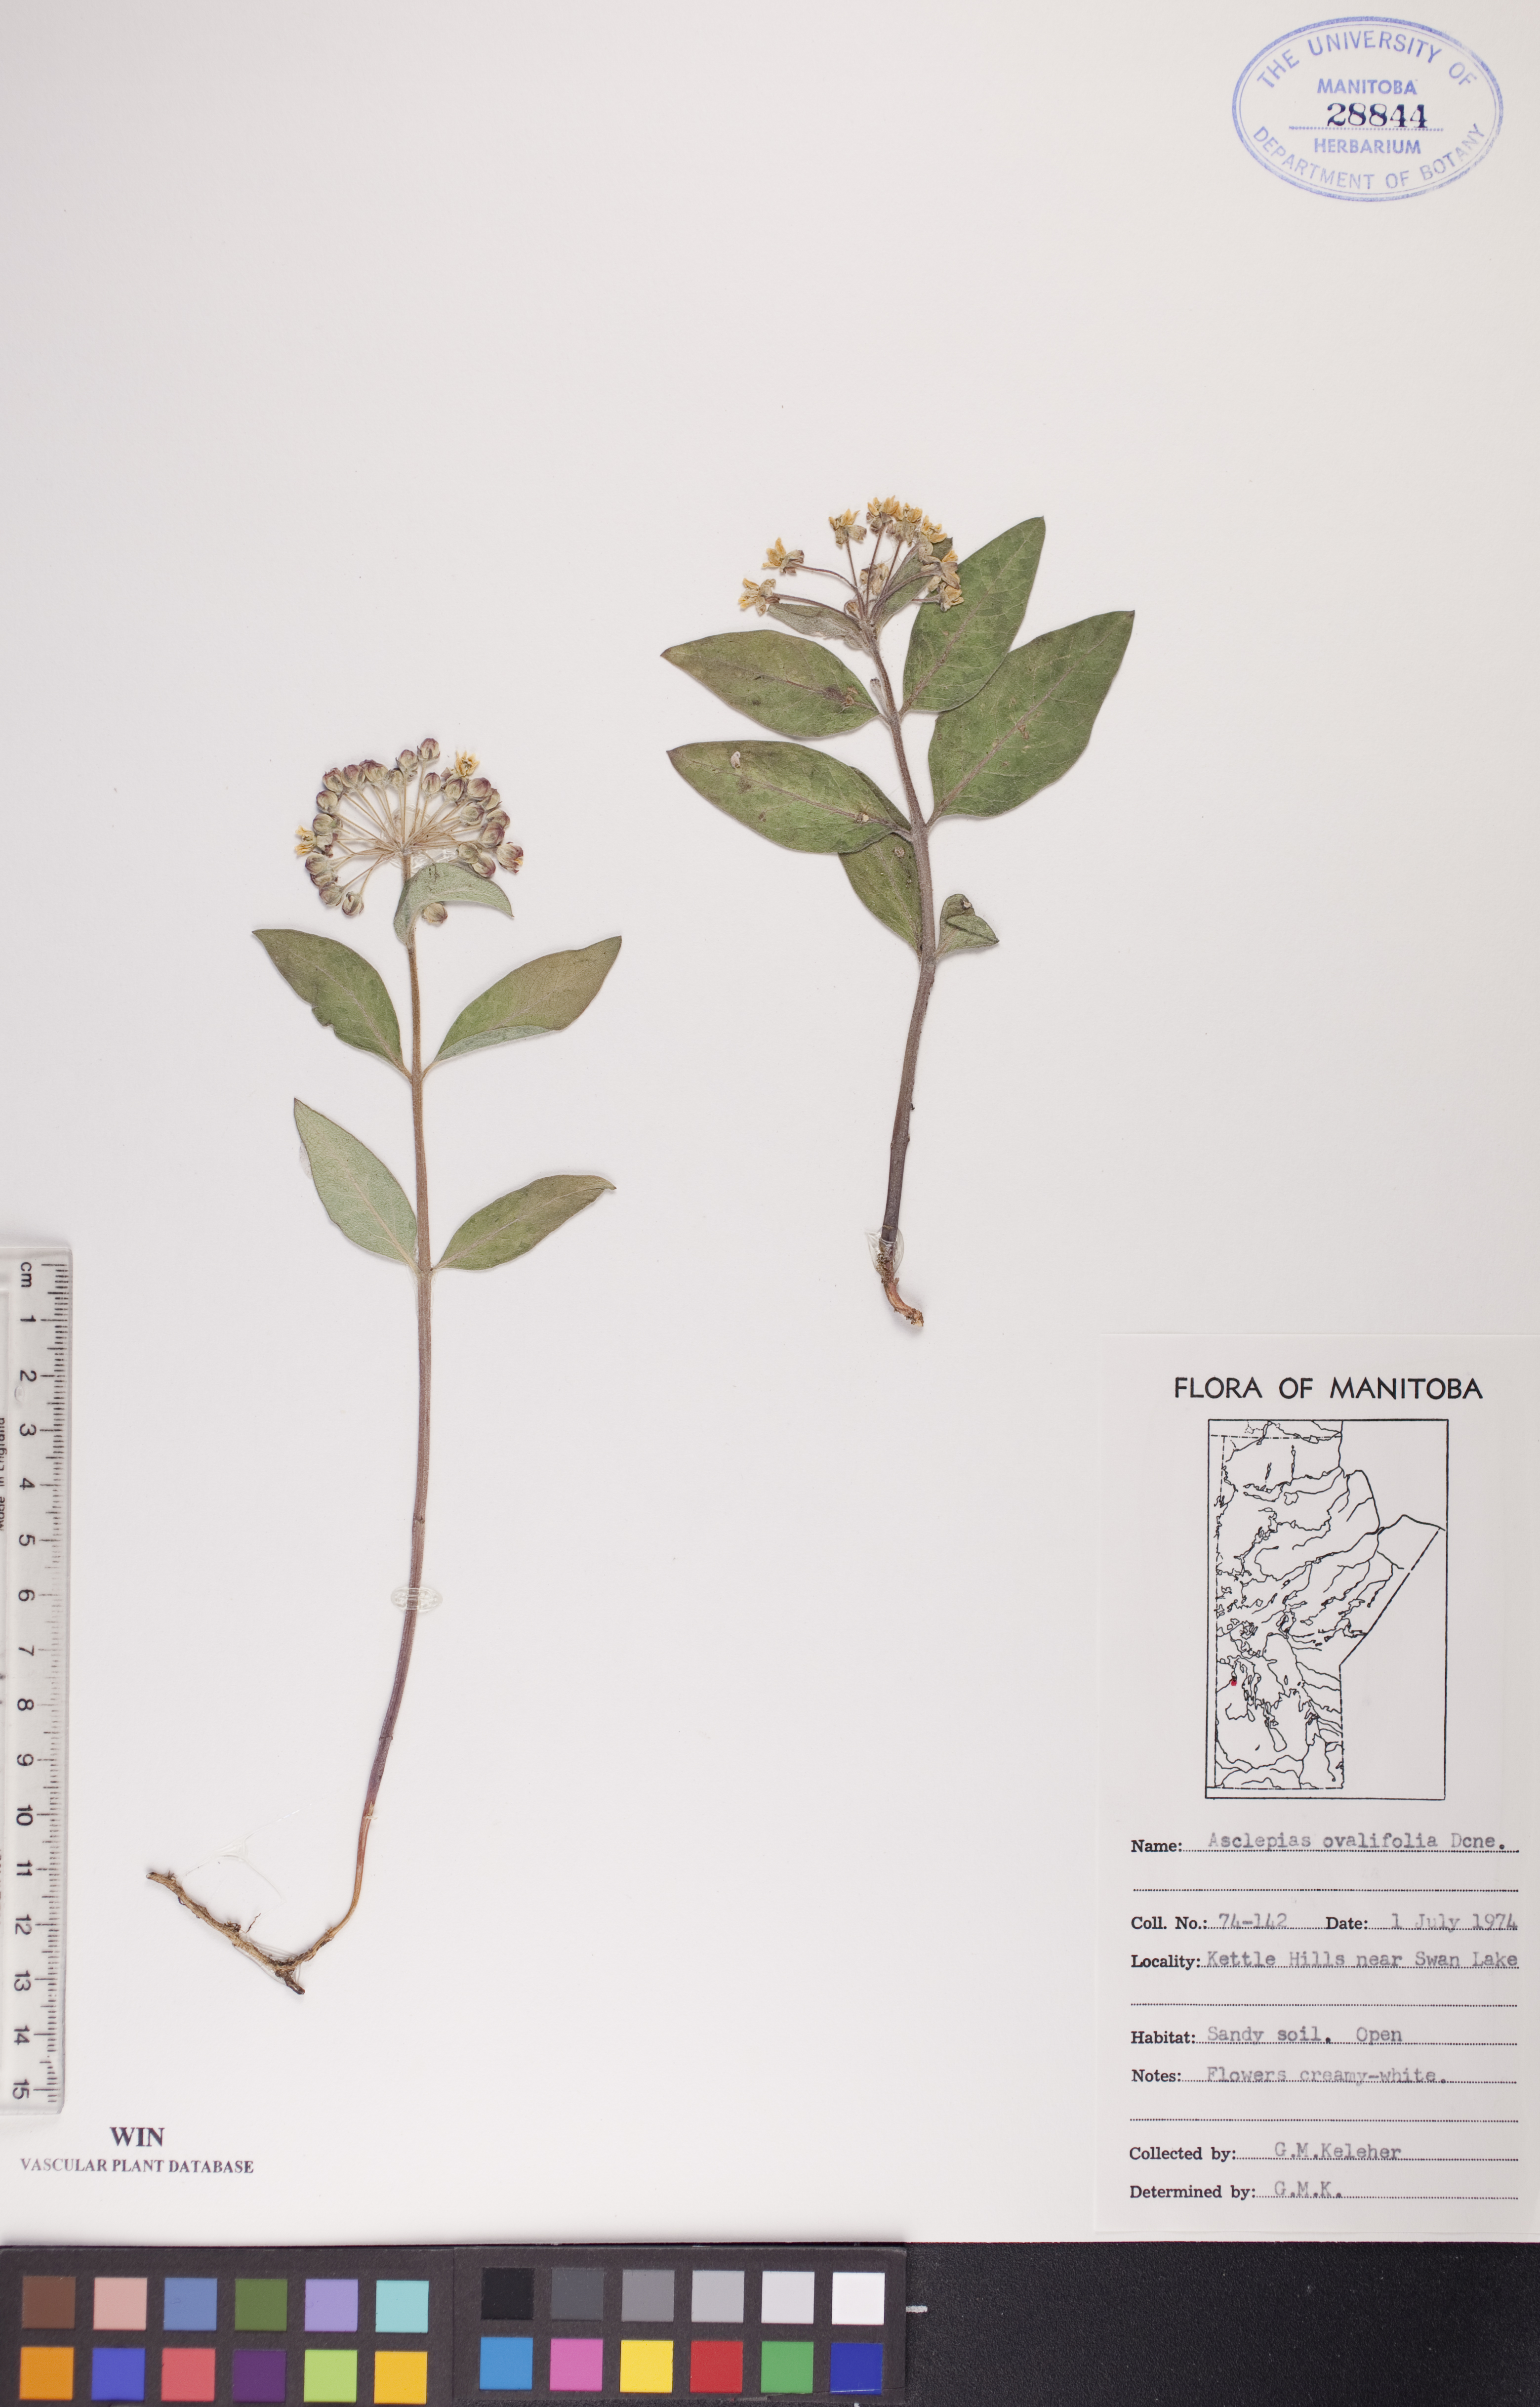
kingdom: Plantae
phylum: Tracheophyta
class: Magnoliopsida
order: Gentianales
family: Apocynaceae
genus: Asclepias
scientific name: Asclepias ovalifolia
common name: Dwarf milkweed
